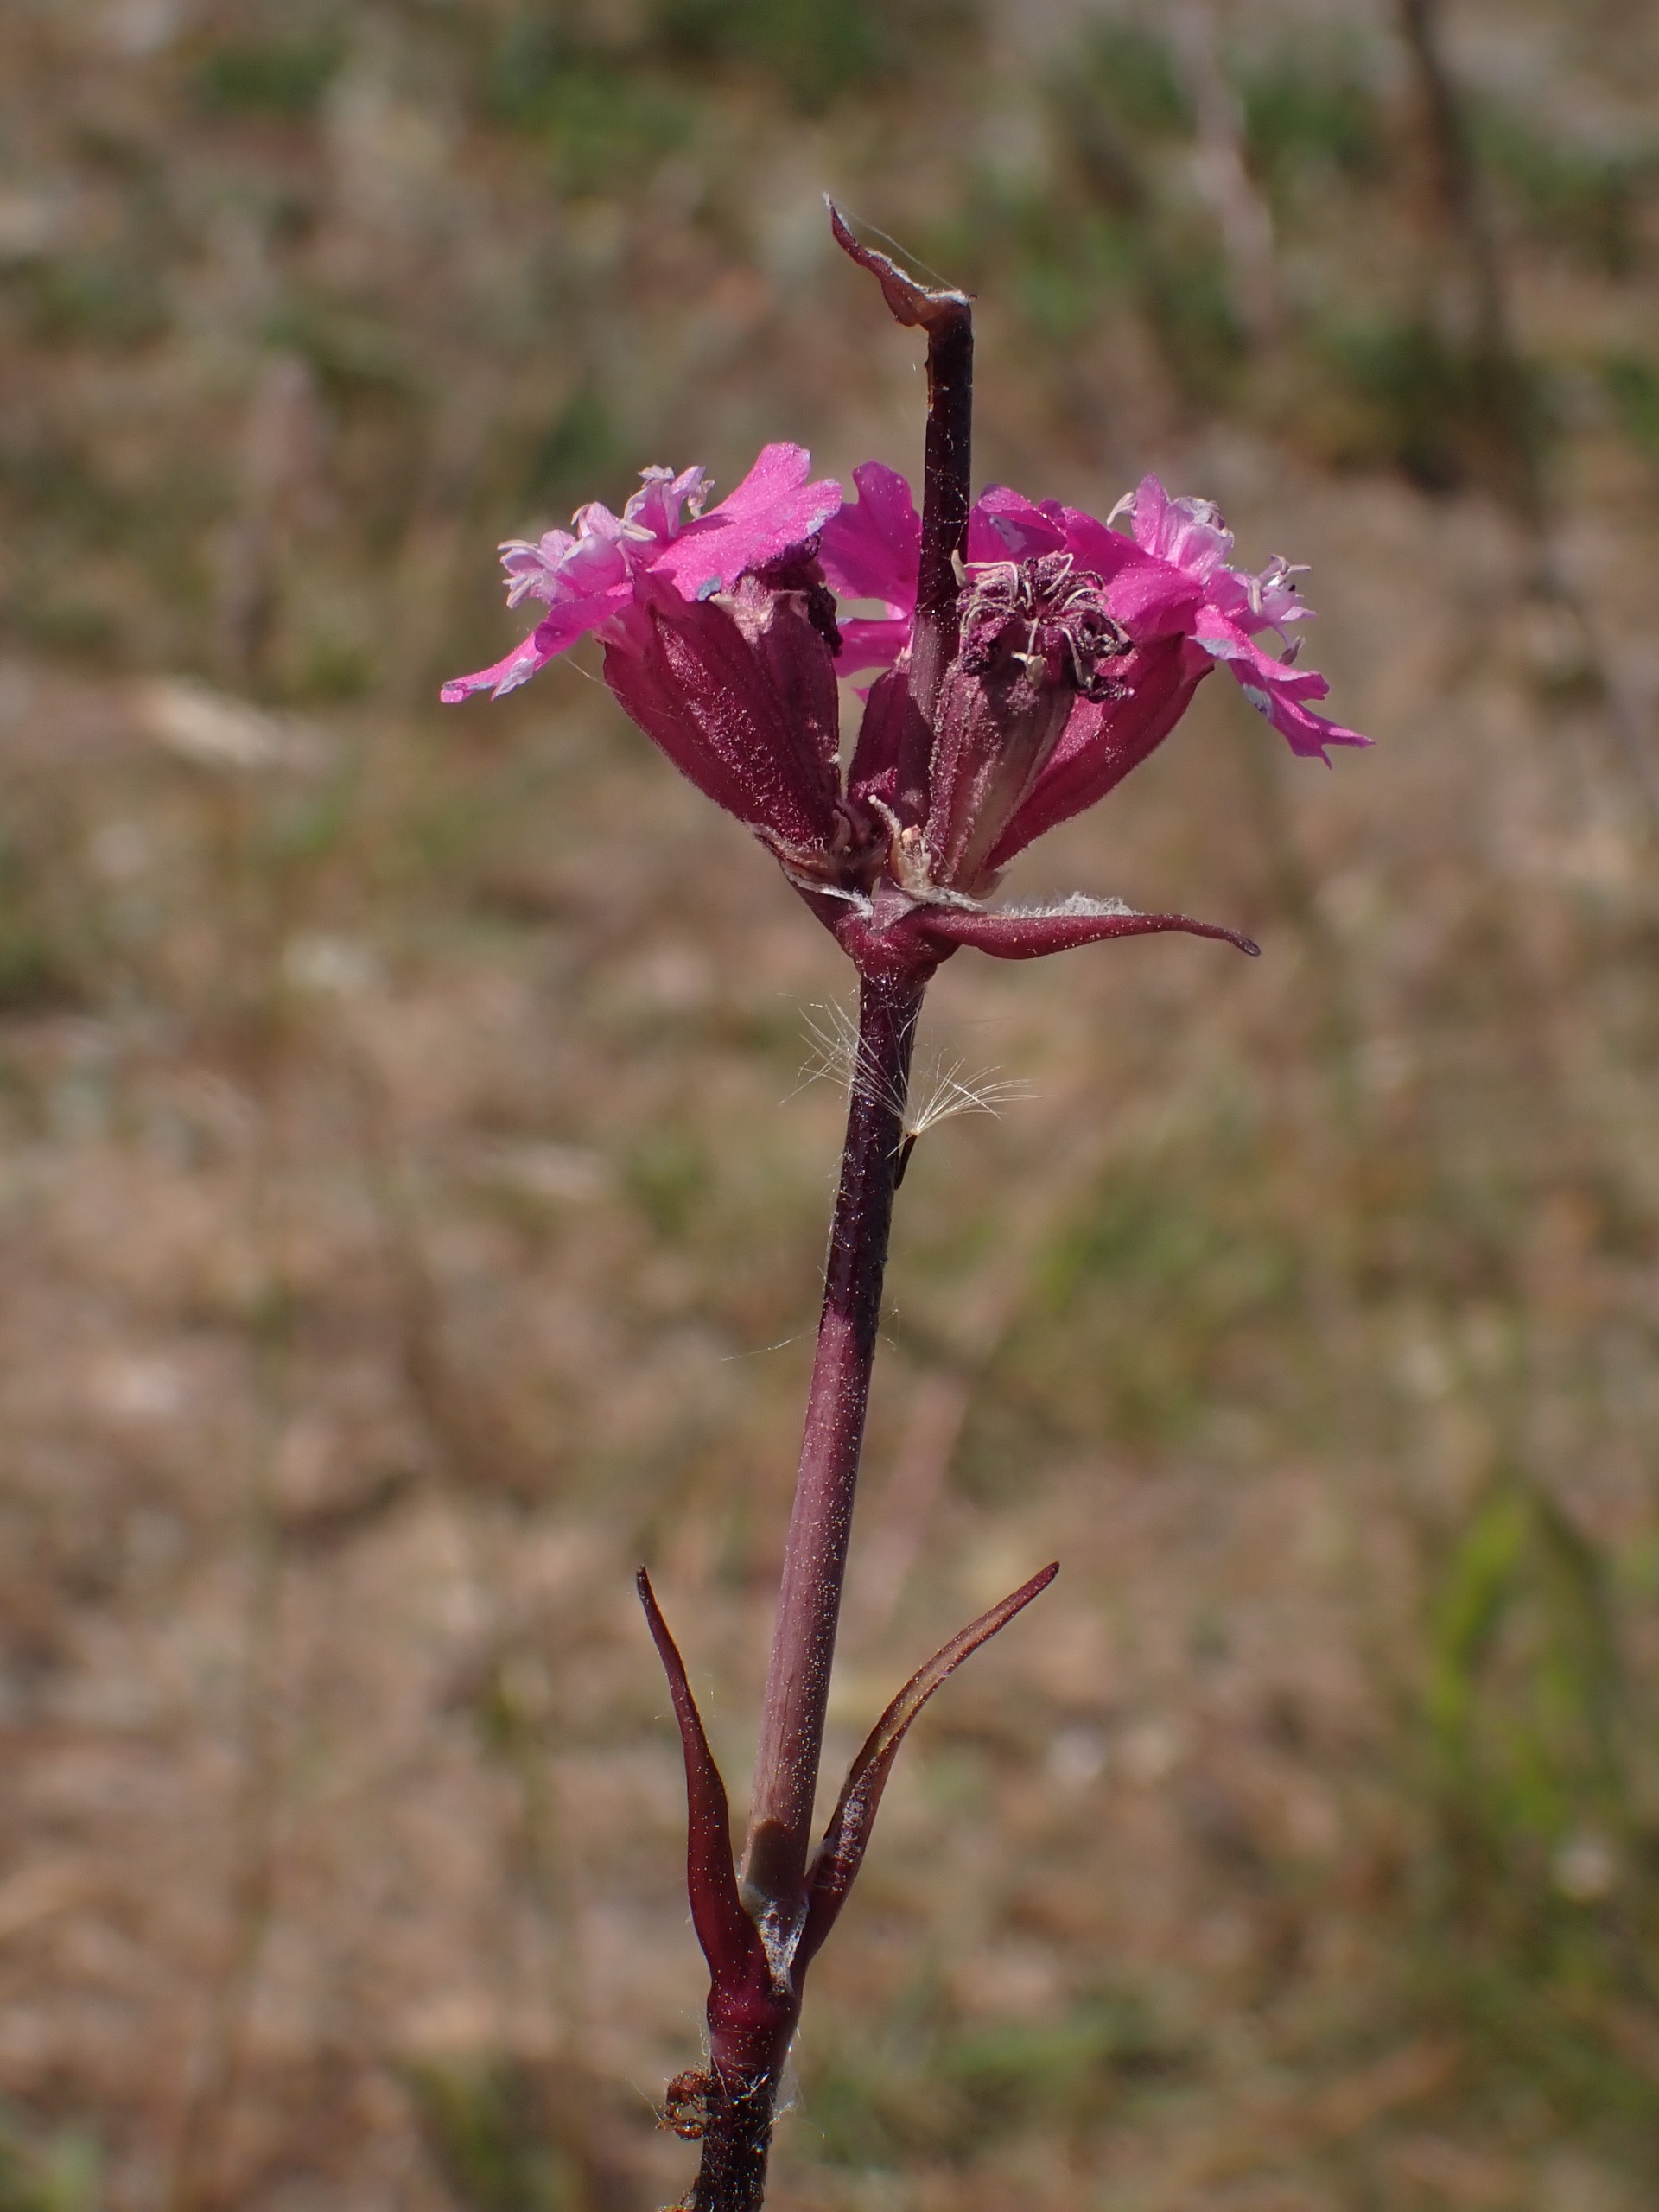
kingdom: Plantae
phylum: Tracheophyta
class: Magnoliopsida
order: Caryophyllales
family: Caryophyllaceae
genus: Viscaria
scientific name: Viscaria vulgaris
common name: Tjærenellike
